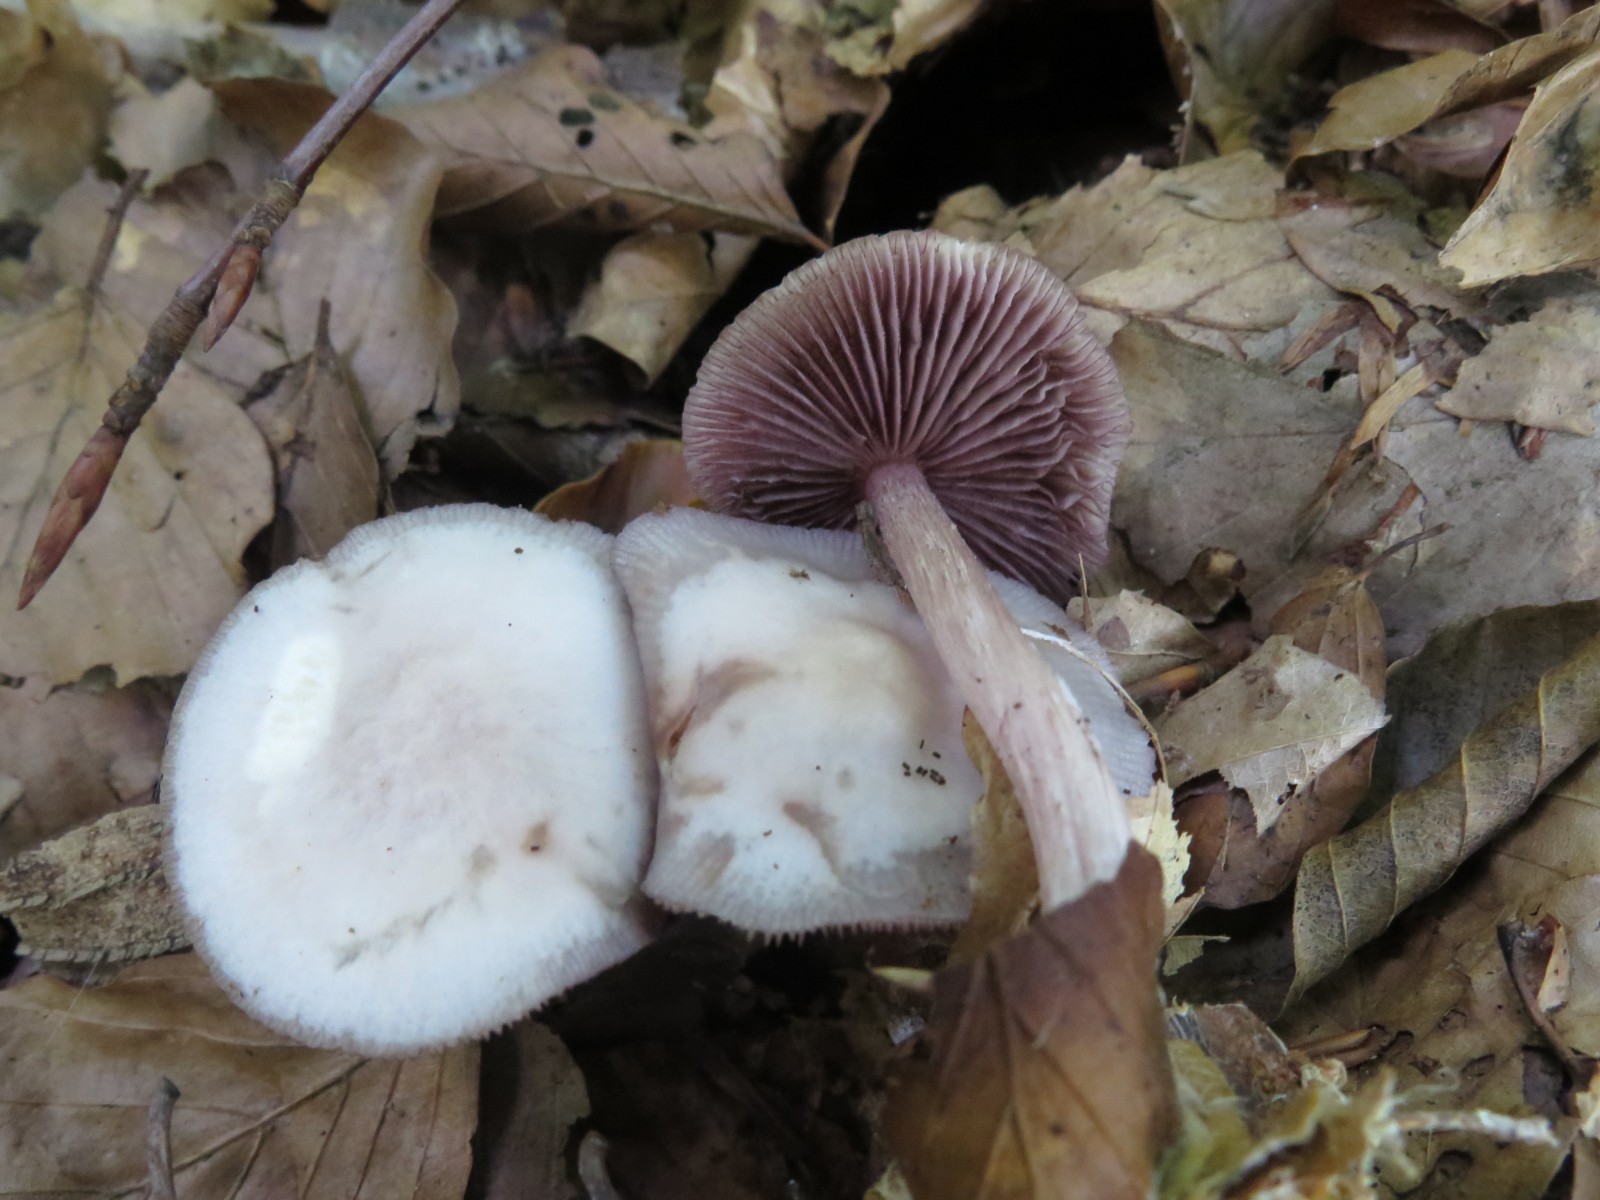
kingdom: Fungi
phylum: Basidiomycota
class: Agaricomycetes
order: Agaricales
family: Mycenaceae
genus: Mycena
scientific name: Mycena pelianthina
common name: mørkbladet huesvamp
